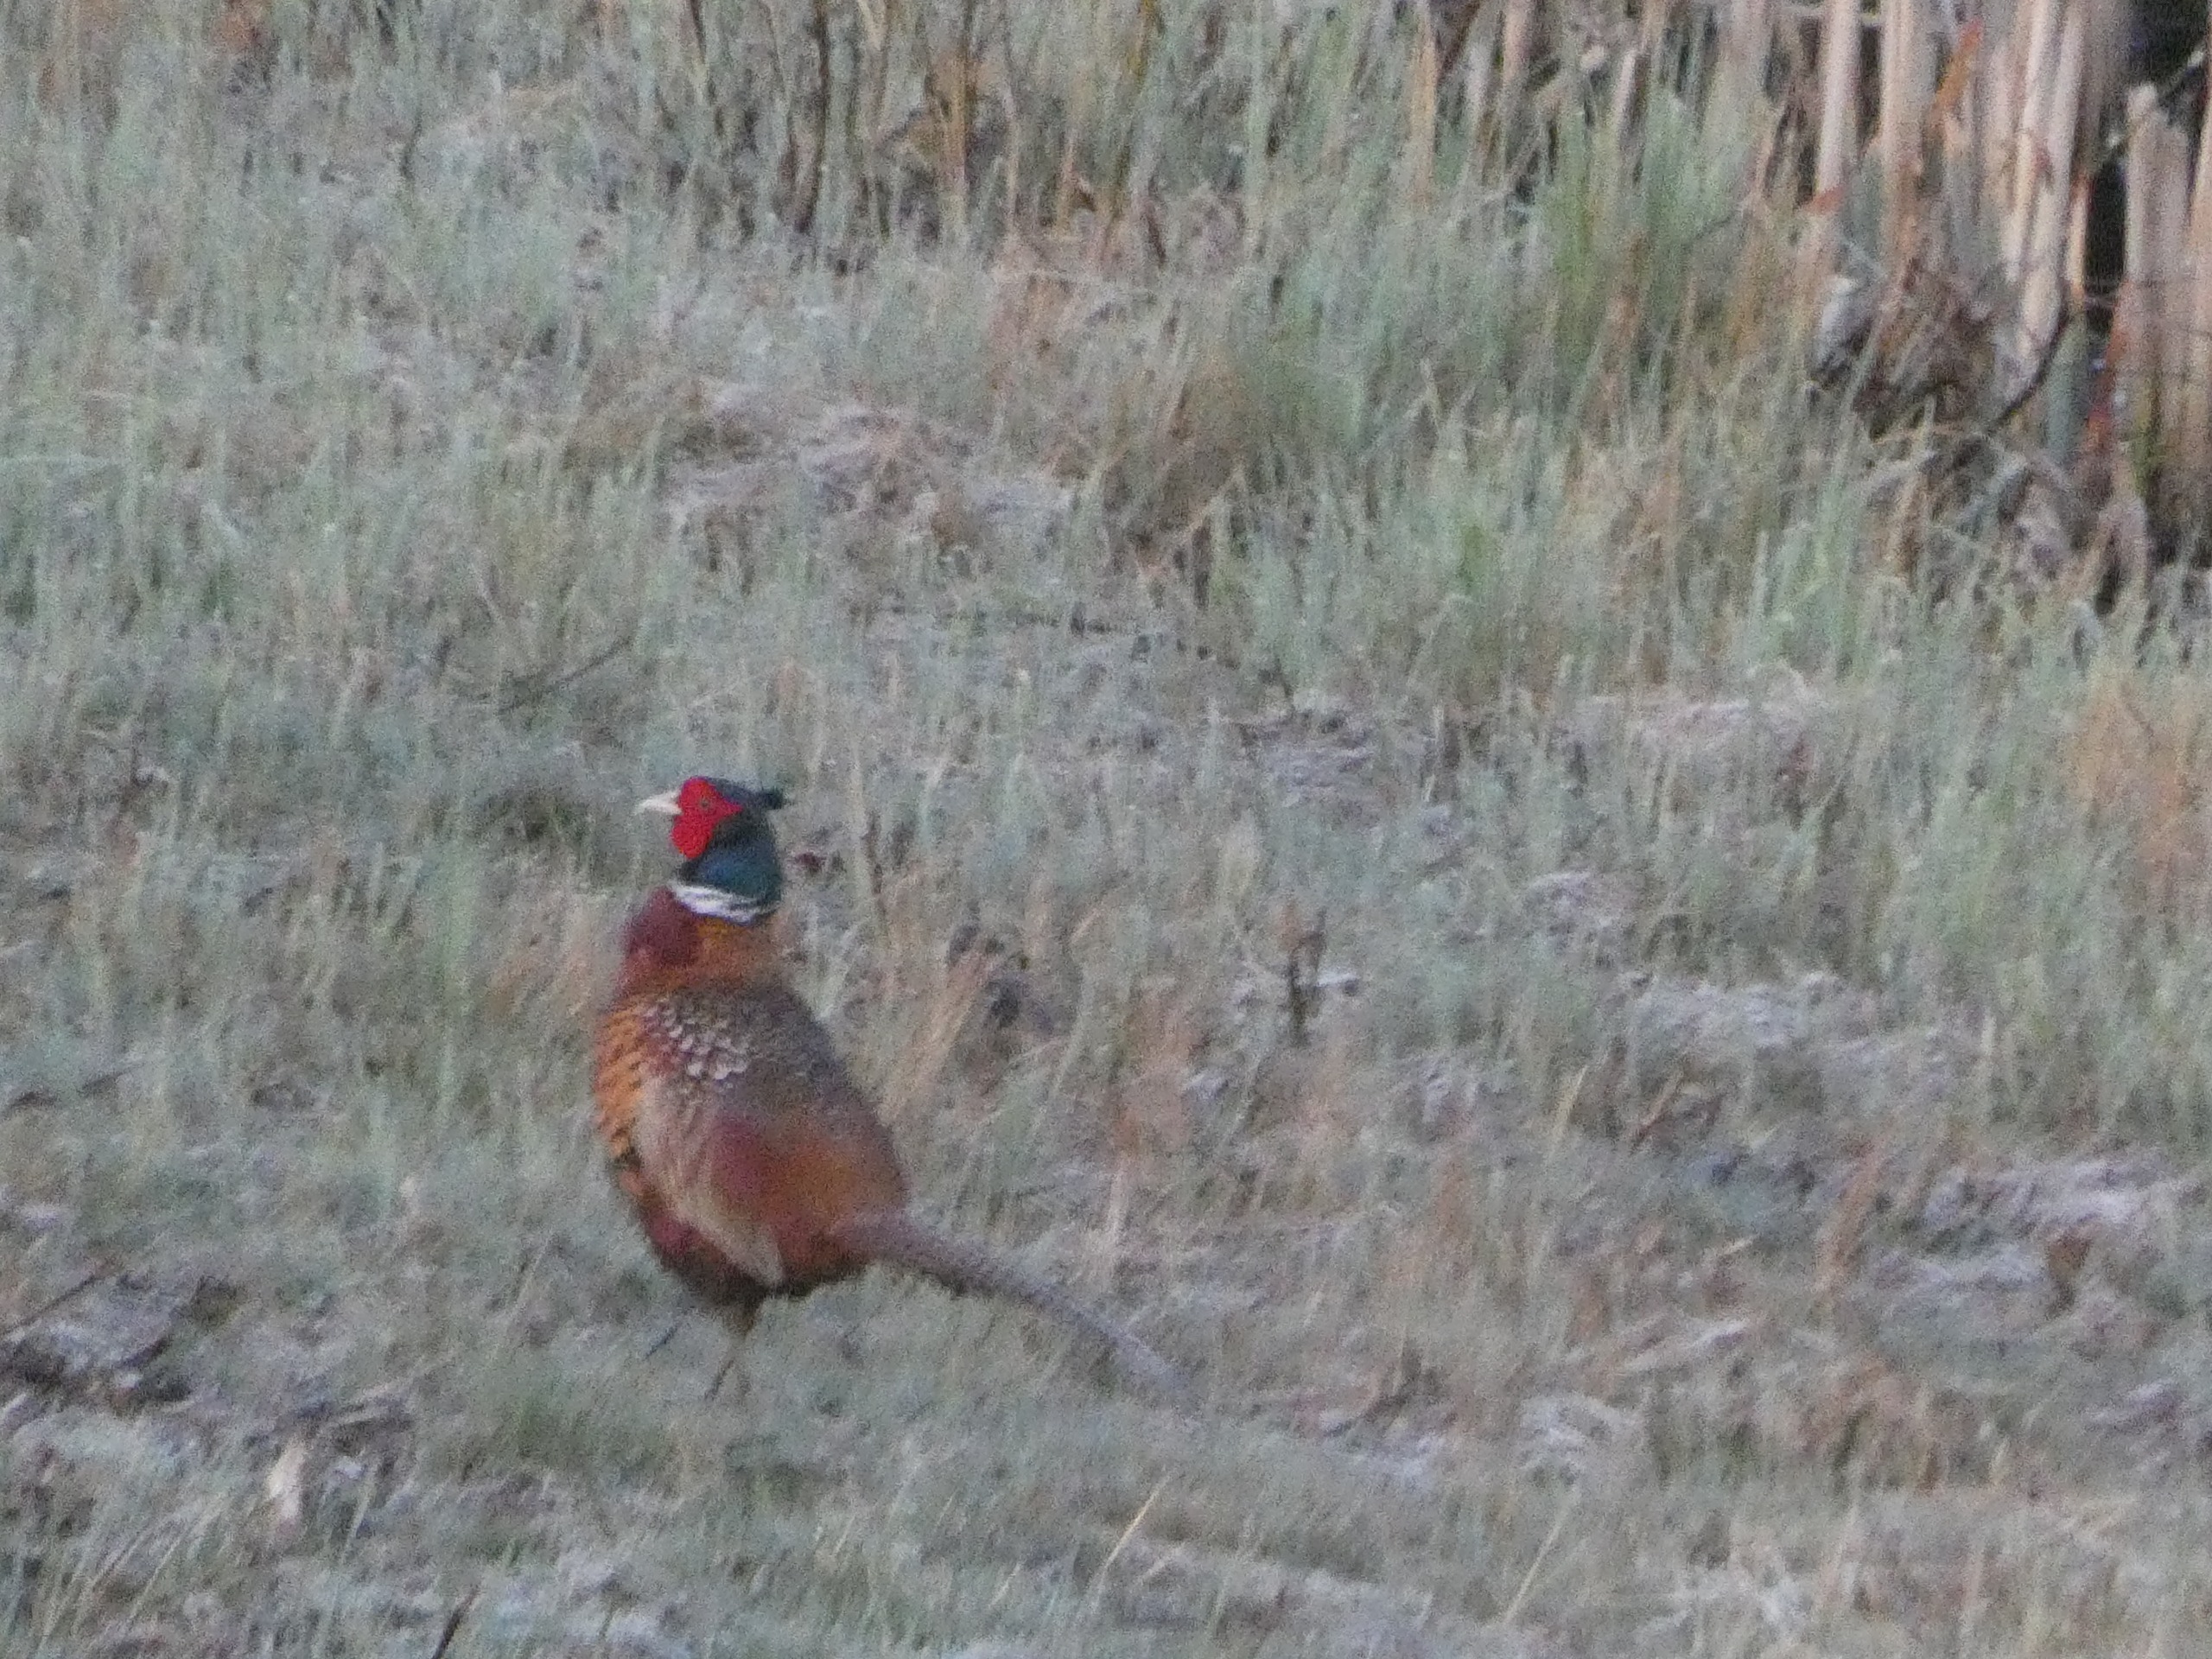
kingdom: Animalia
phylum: Chordata
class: Aves
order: Galliformes
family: Phasianidae
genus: Phasianus
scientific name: Phasianus colchicus
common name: Fasan
